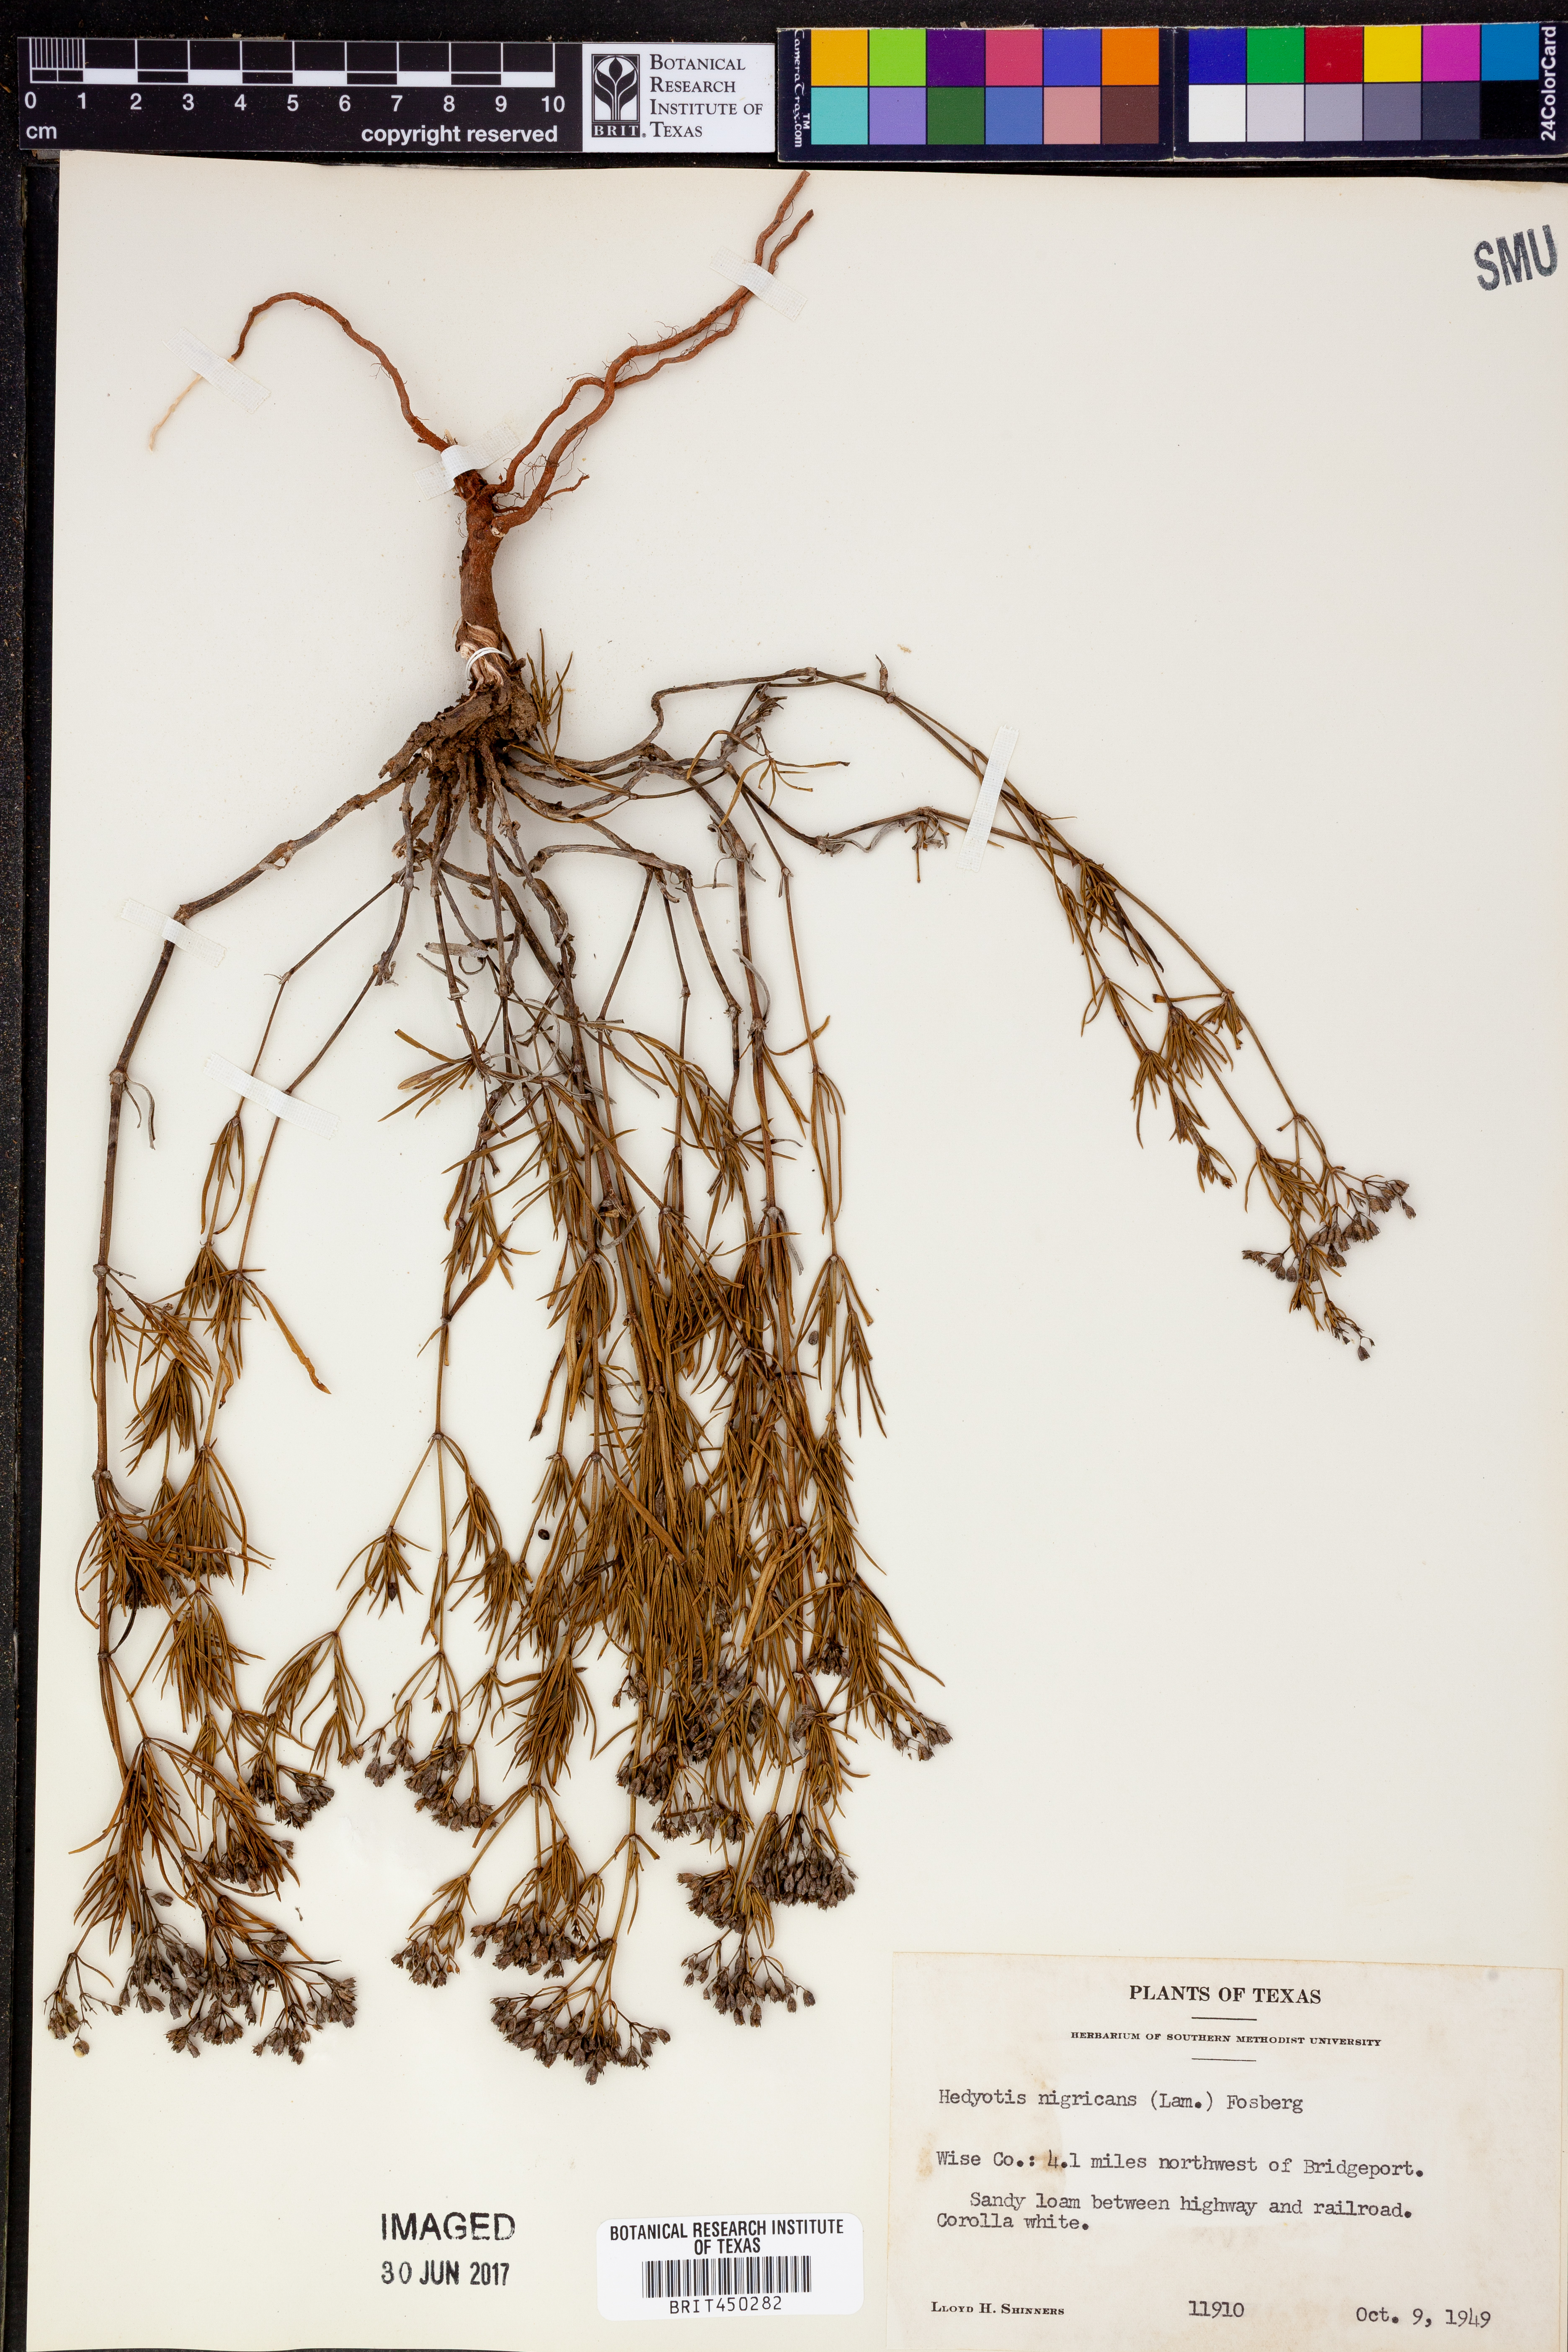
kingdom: Plantae
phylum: Tracheophyta
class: Magnoliopsida
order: Gentianales
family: Rubiaceae
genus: Stenaria
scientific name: Stenaria nigricans
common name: Diamondflowers
